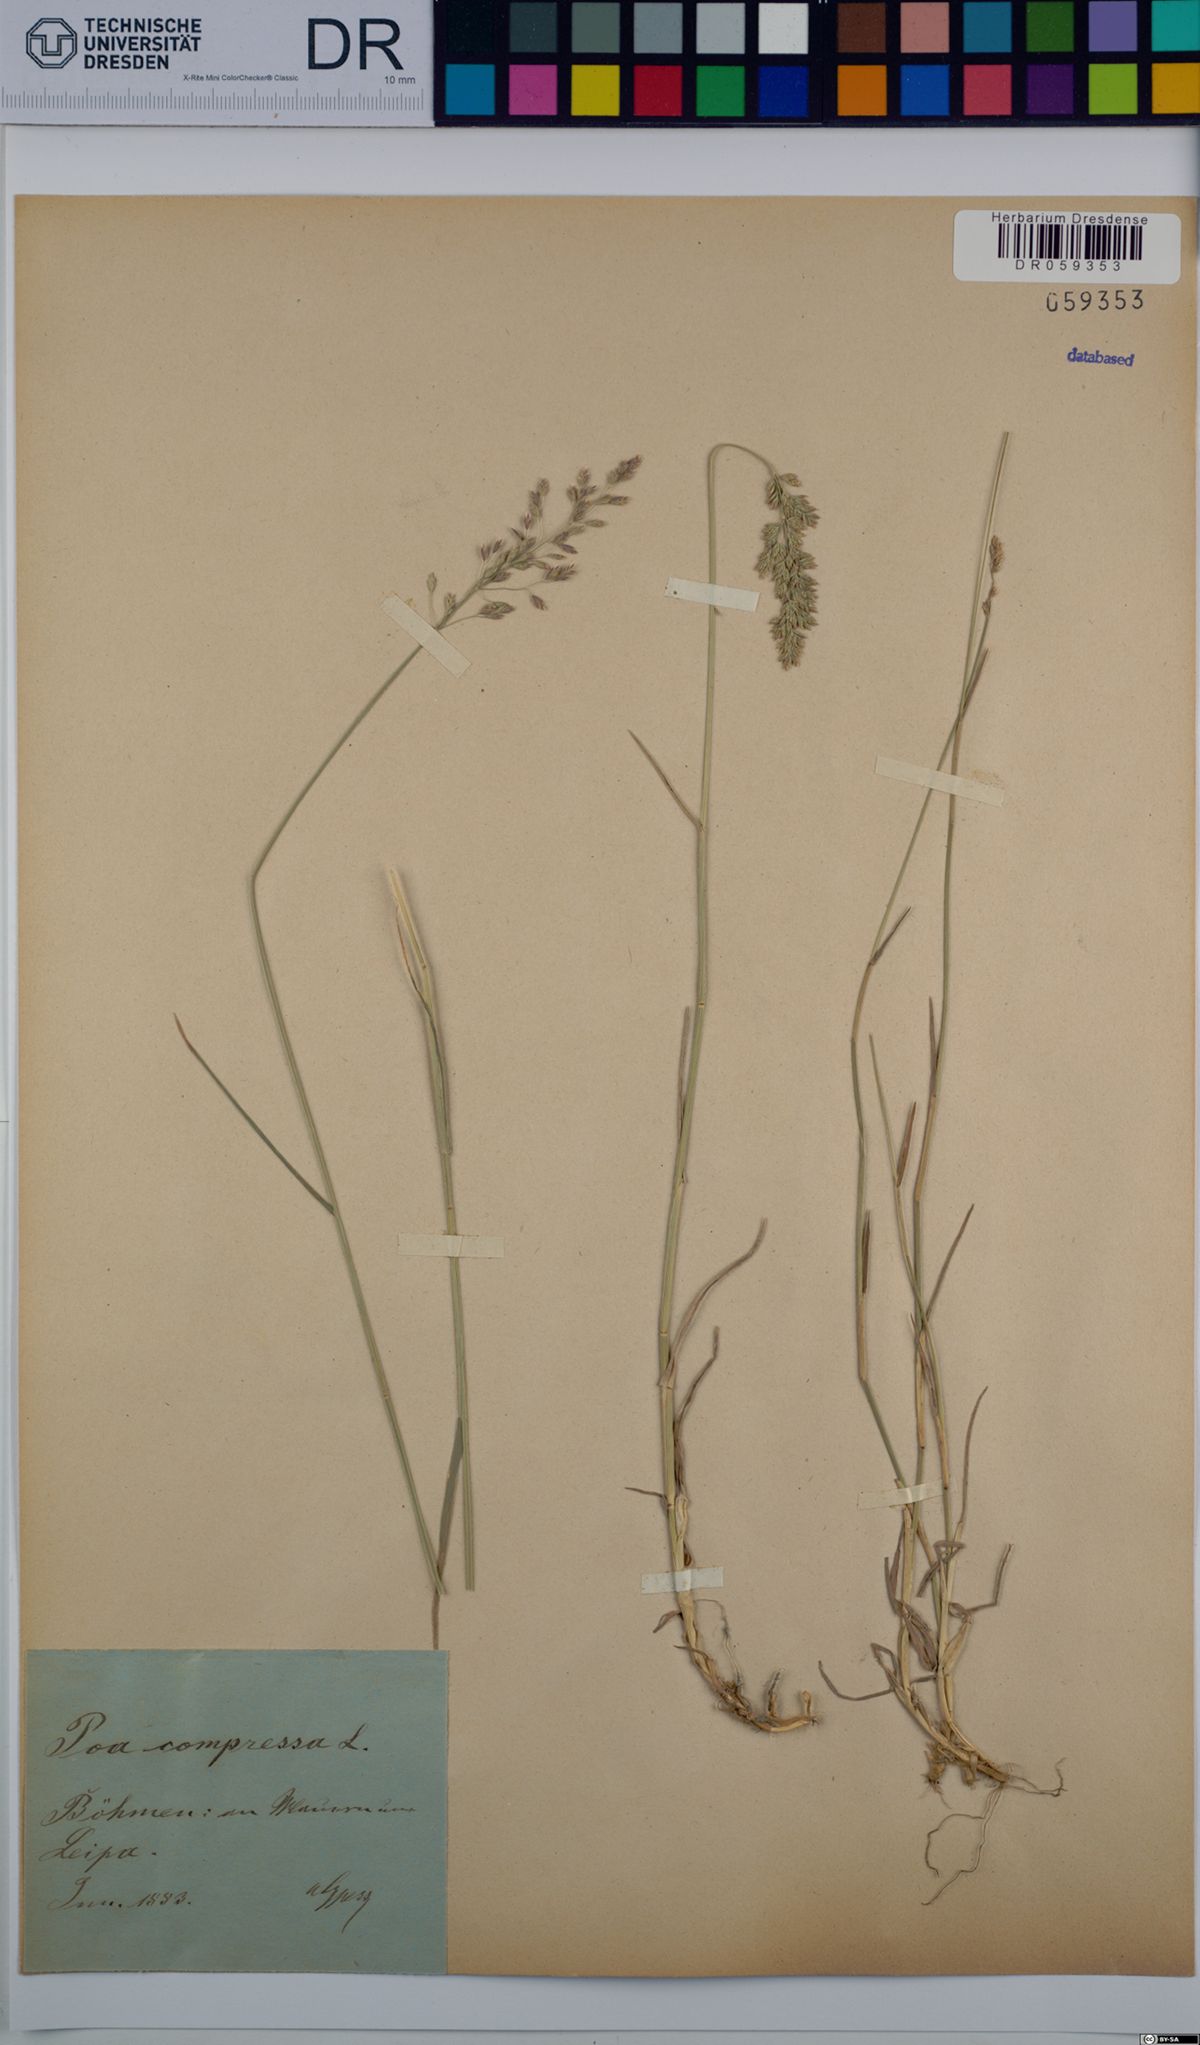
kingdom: Plantae
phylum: Tracheophyta
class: Liliopsida
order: Poales
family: Poaceae
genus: Poa
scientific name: Poa compressa
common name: Canada bluegrass
